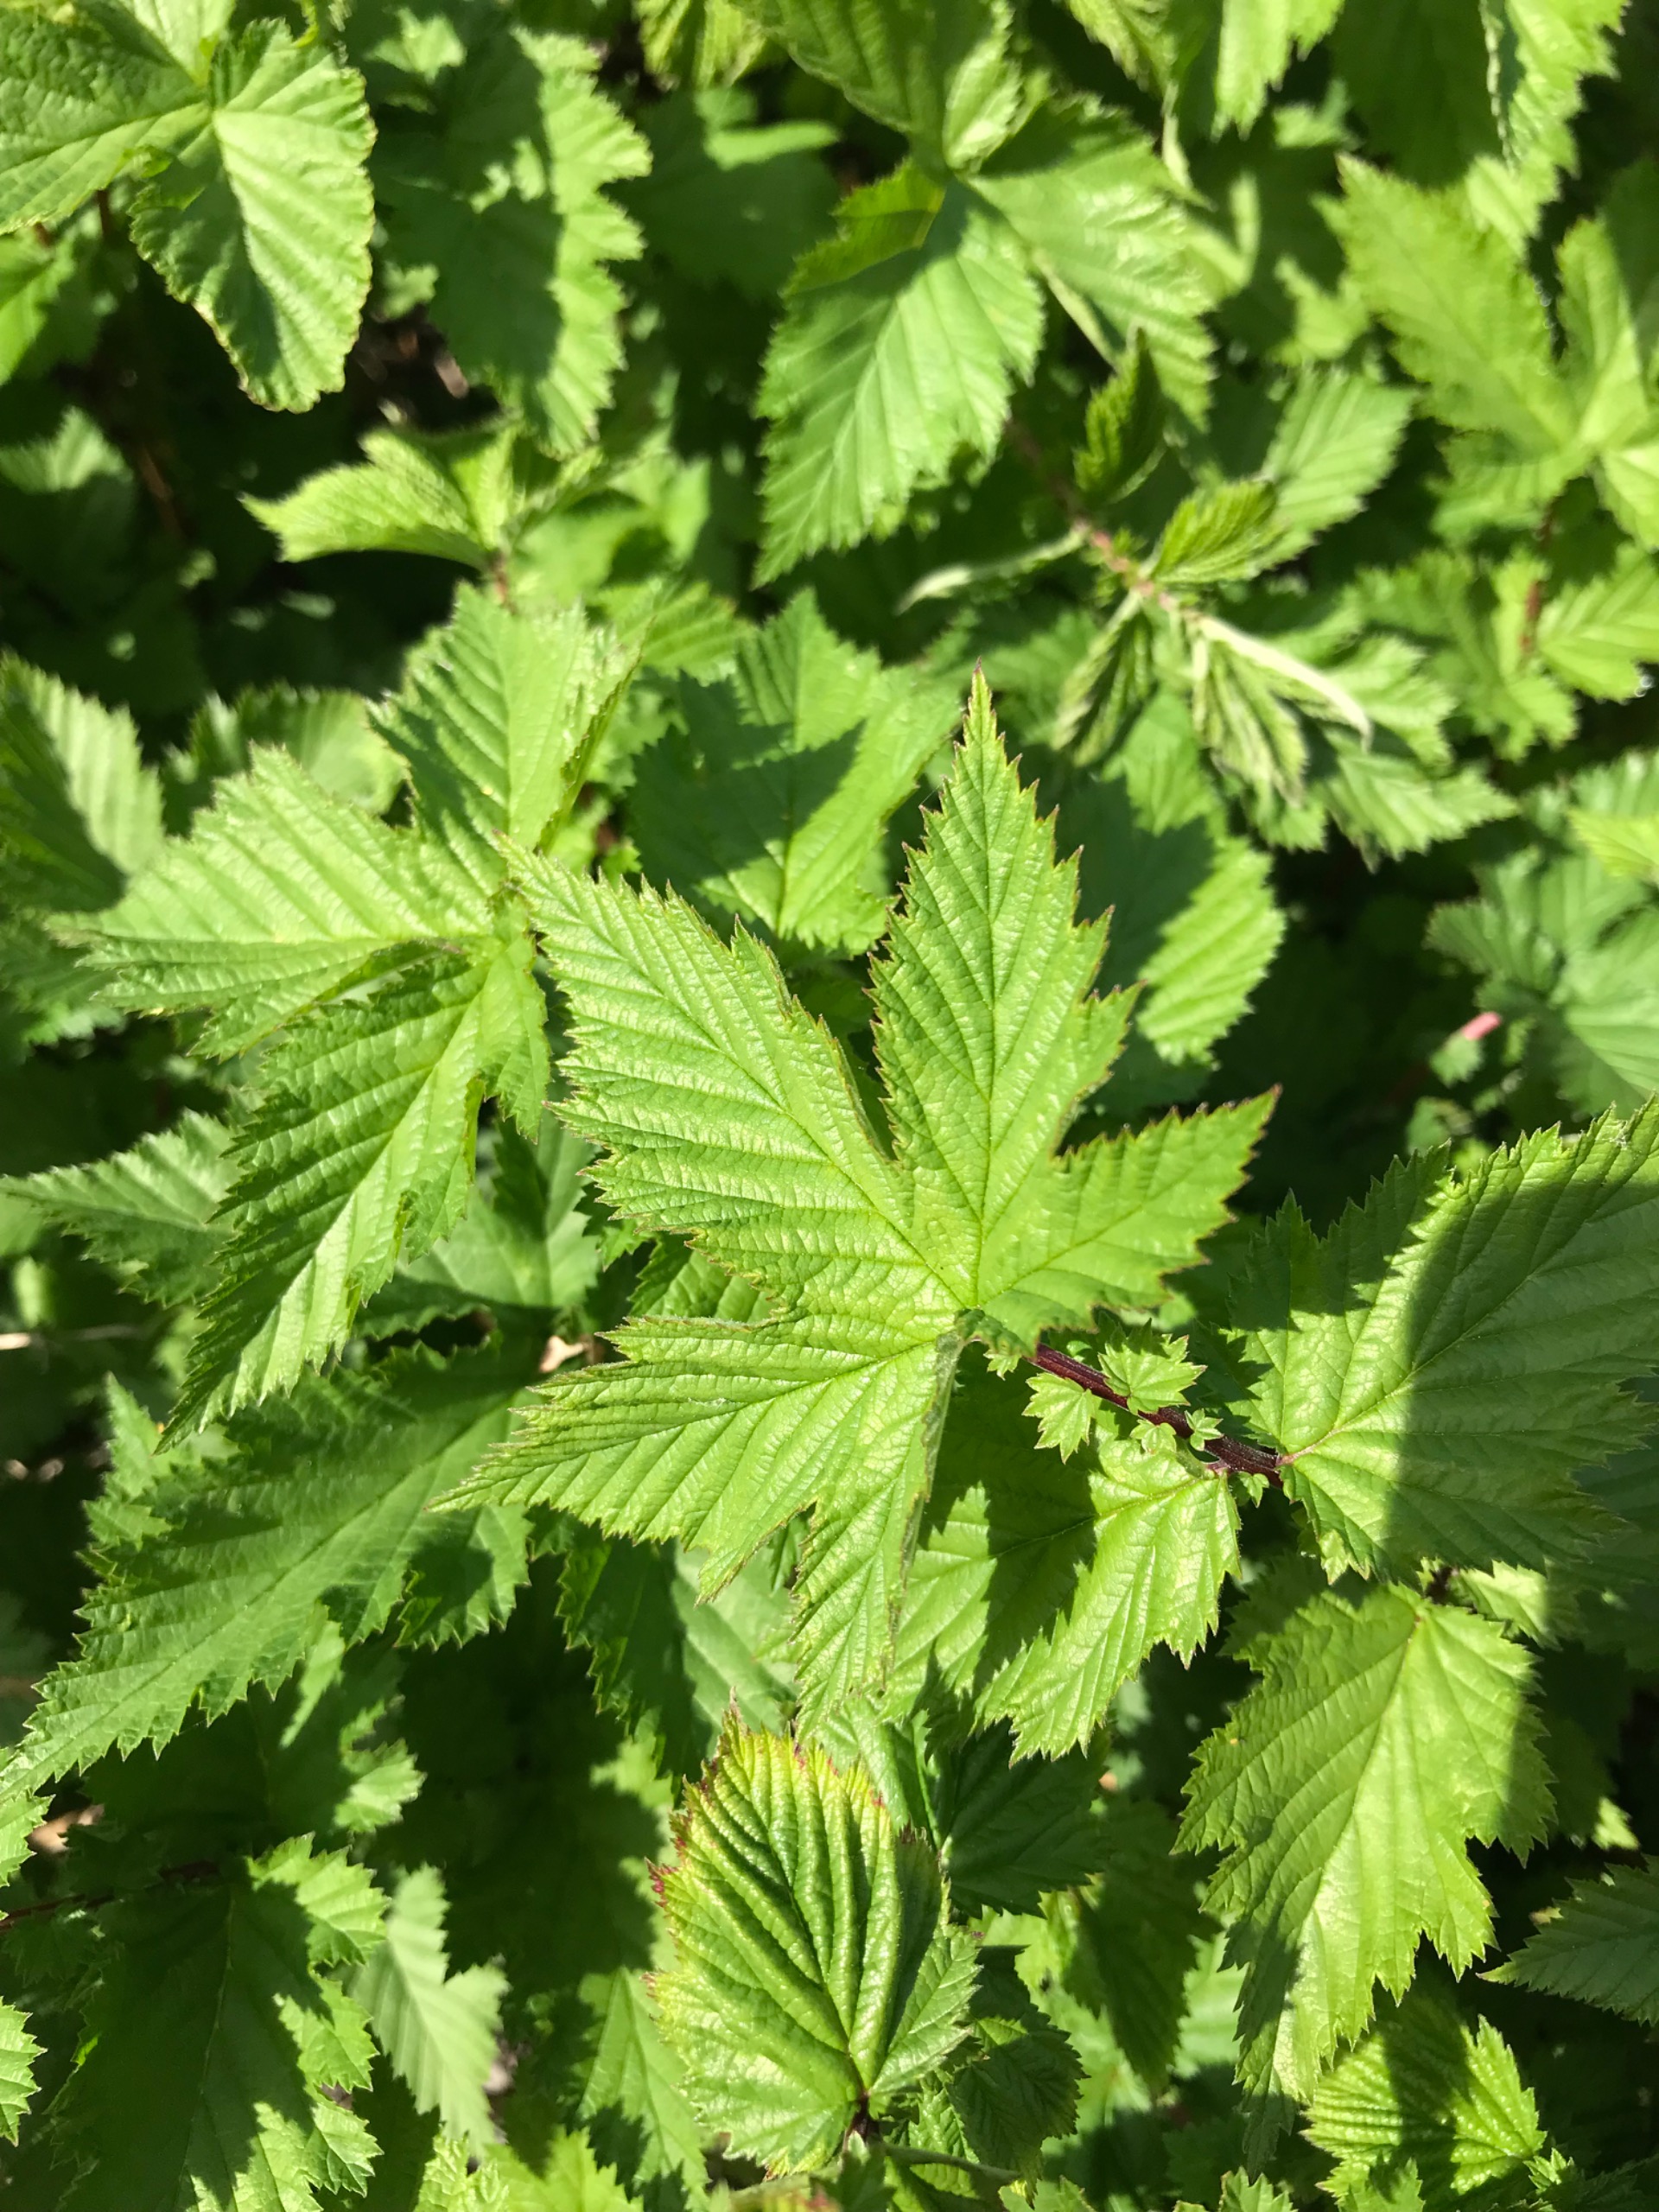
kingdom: Plantae
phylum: Tracheophyta
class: Magnoliopsida
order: Rosales
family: Rosaceae
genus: Filipendula
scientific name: Filipendula ulmaria
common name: Almindelig mjødurt
